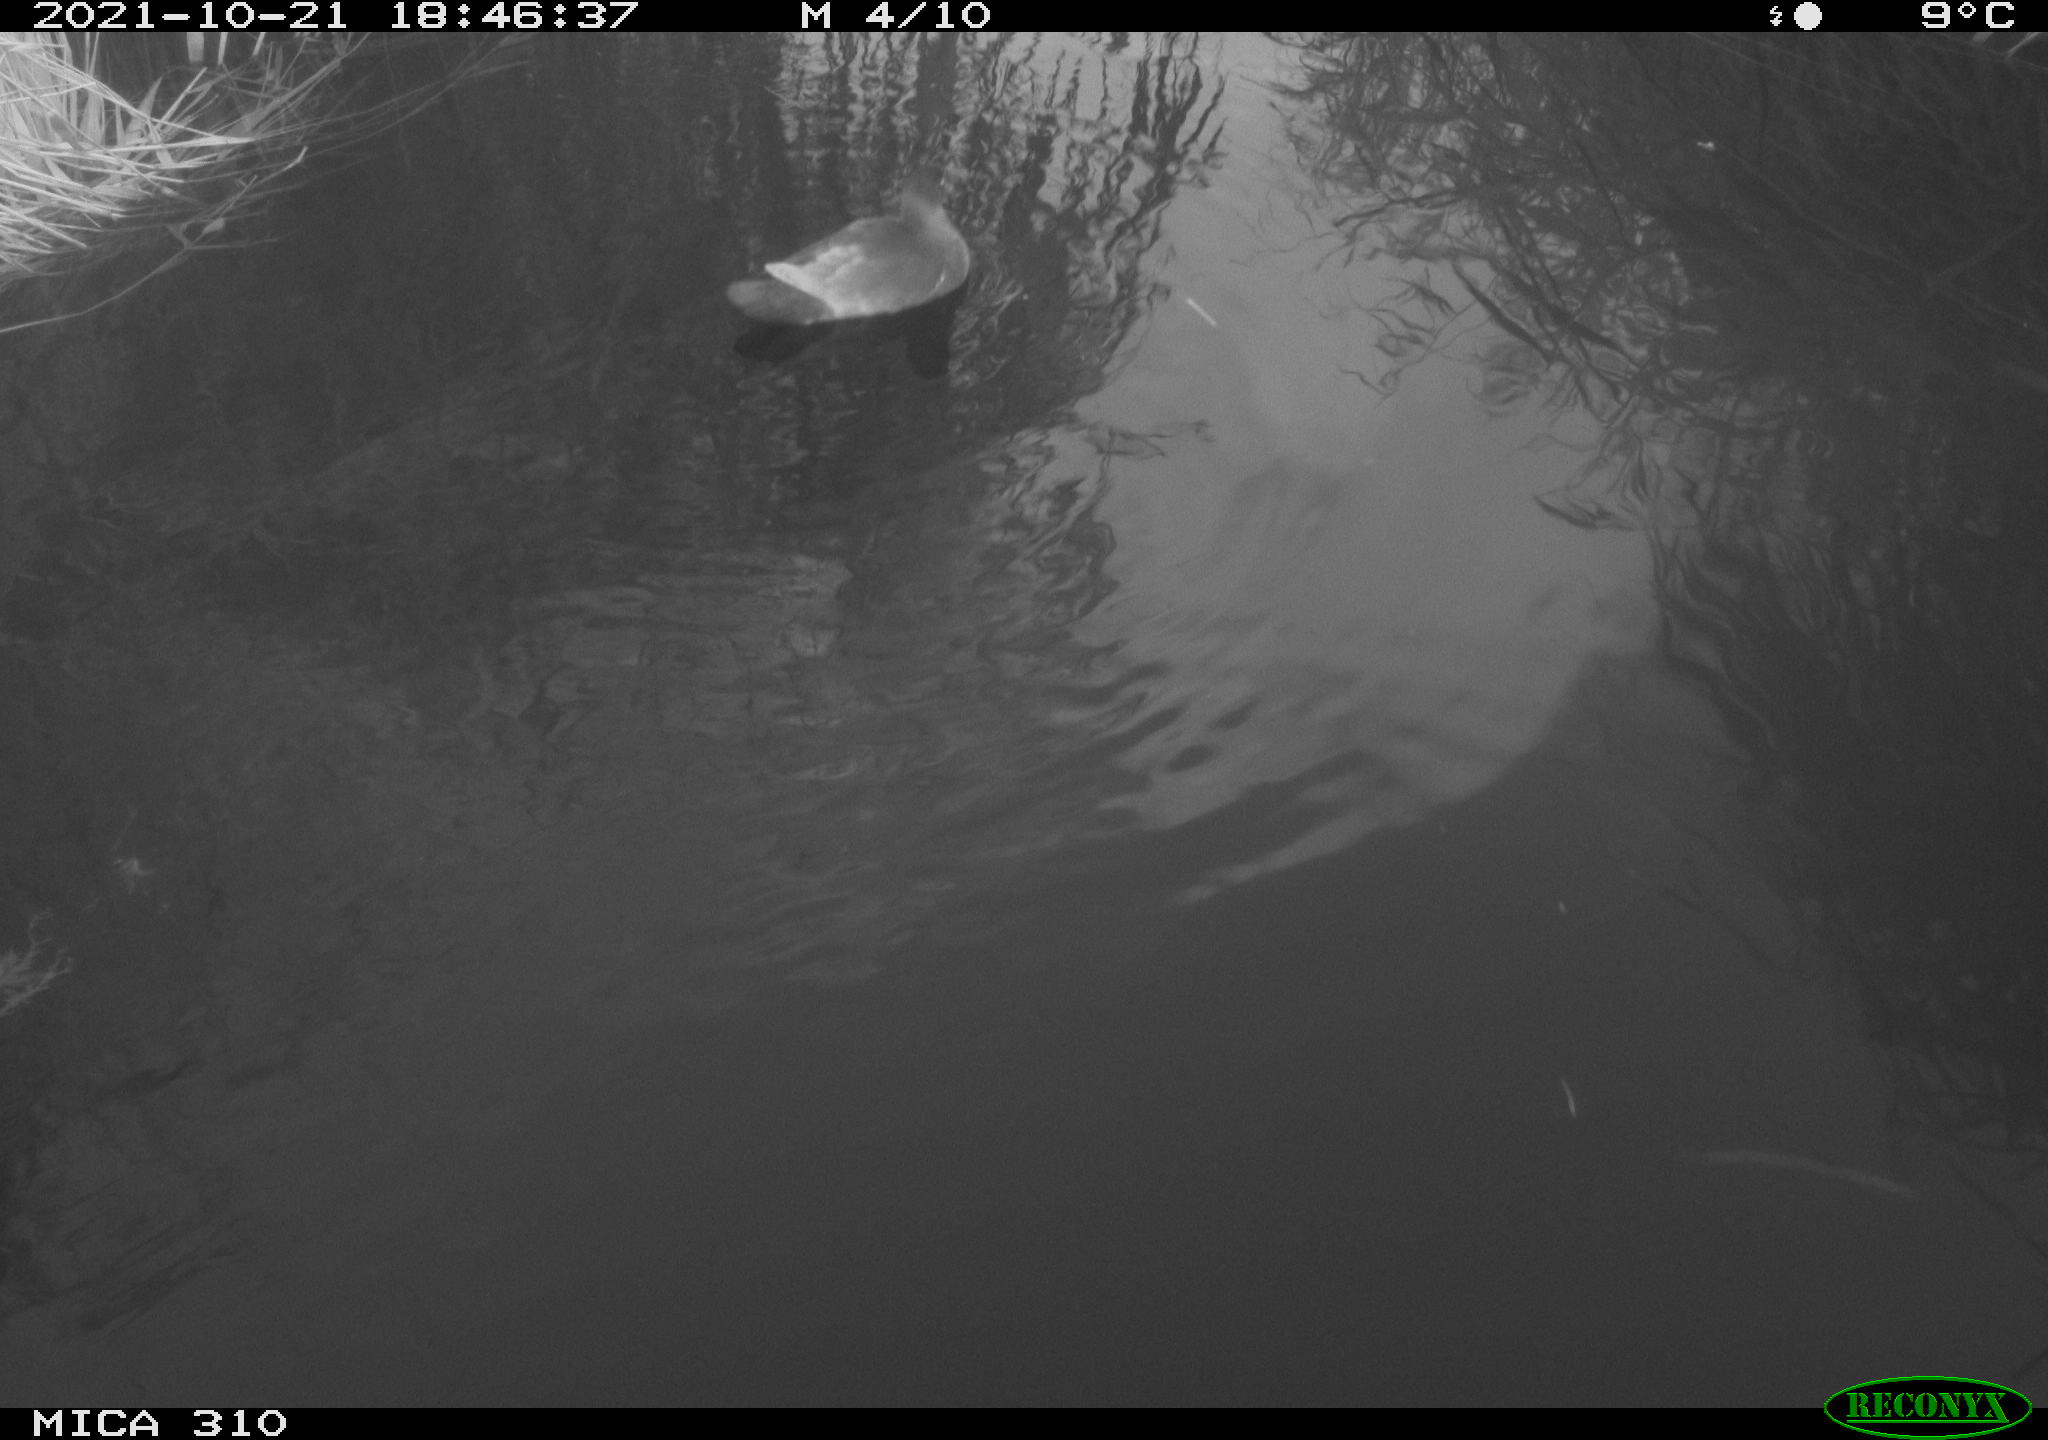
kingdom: Animalia
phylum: Chordata
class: Aves
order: Gruiformes
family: Rallidae
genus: Gallinula
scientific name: Gallinula chloropus
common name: Common moorhen
